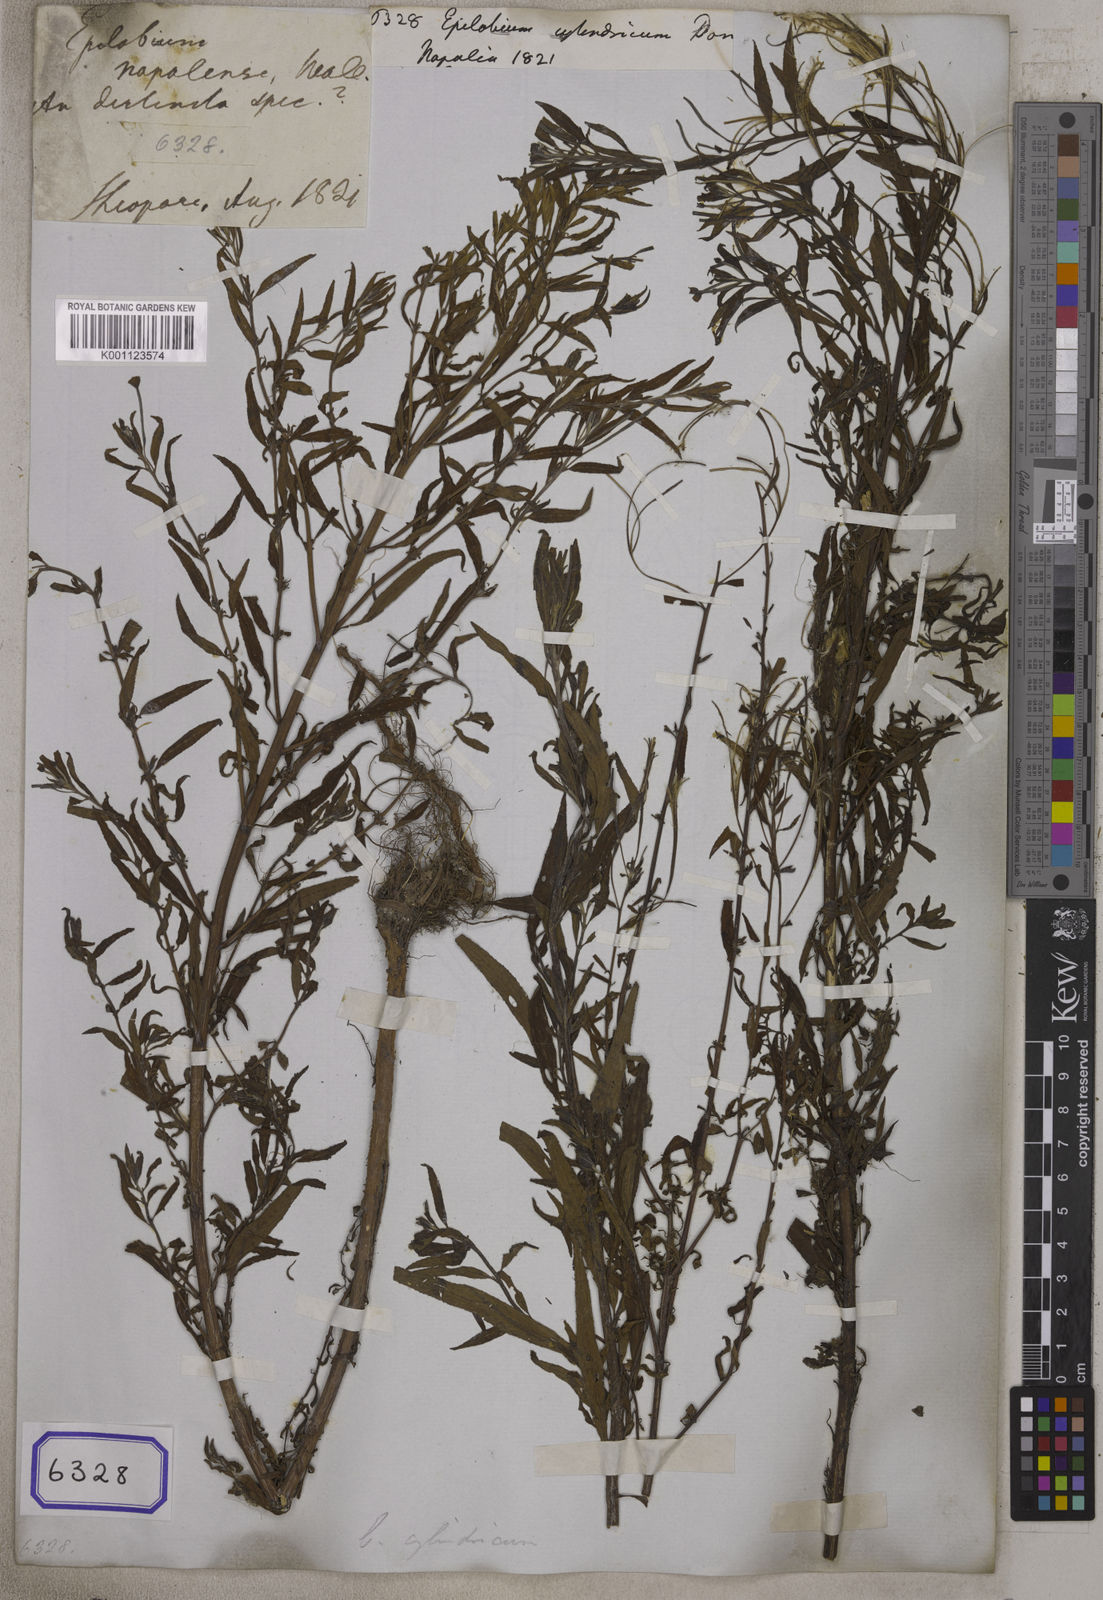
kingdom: Plantae
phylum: Tracheophyta
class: Magnoliopsida
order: Myrtales
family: Onagraceae
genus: Epilobium
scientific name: Epilobium cylindricum
